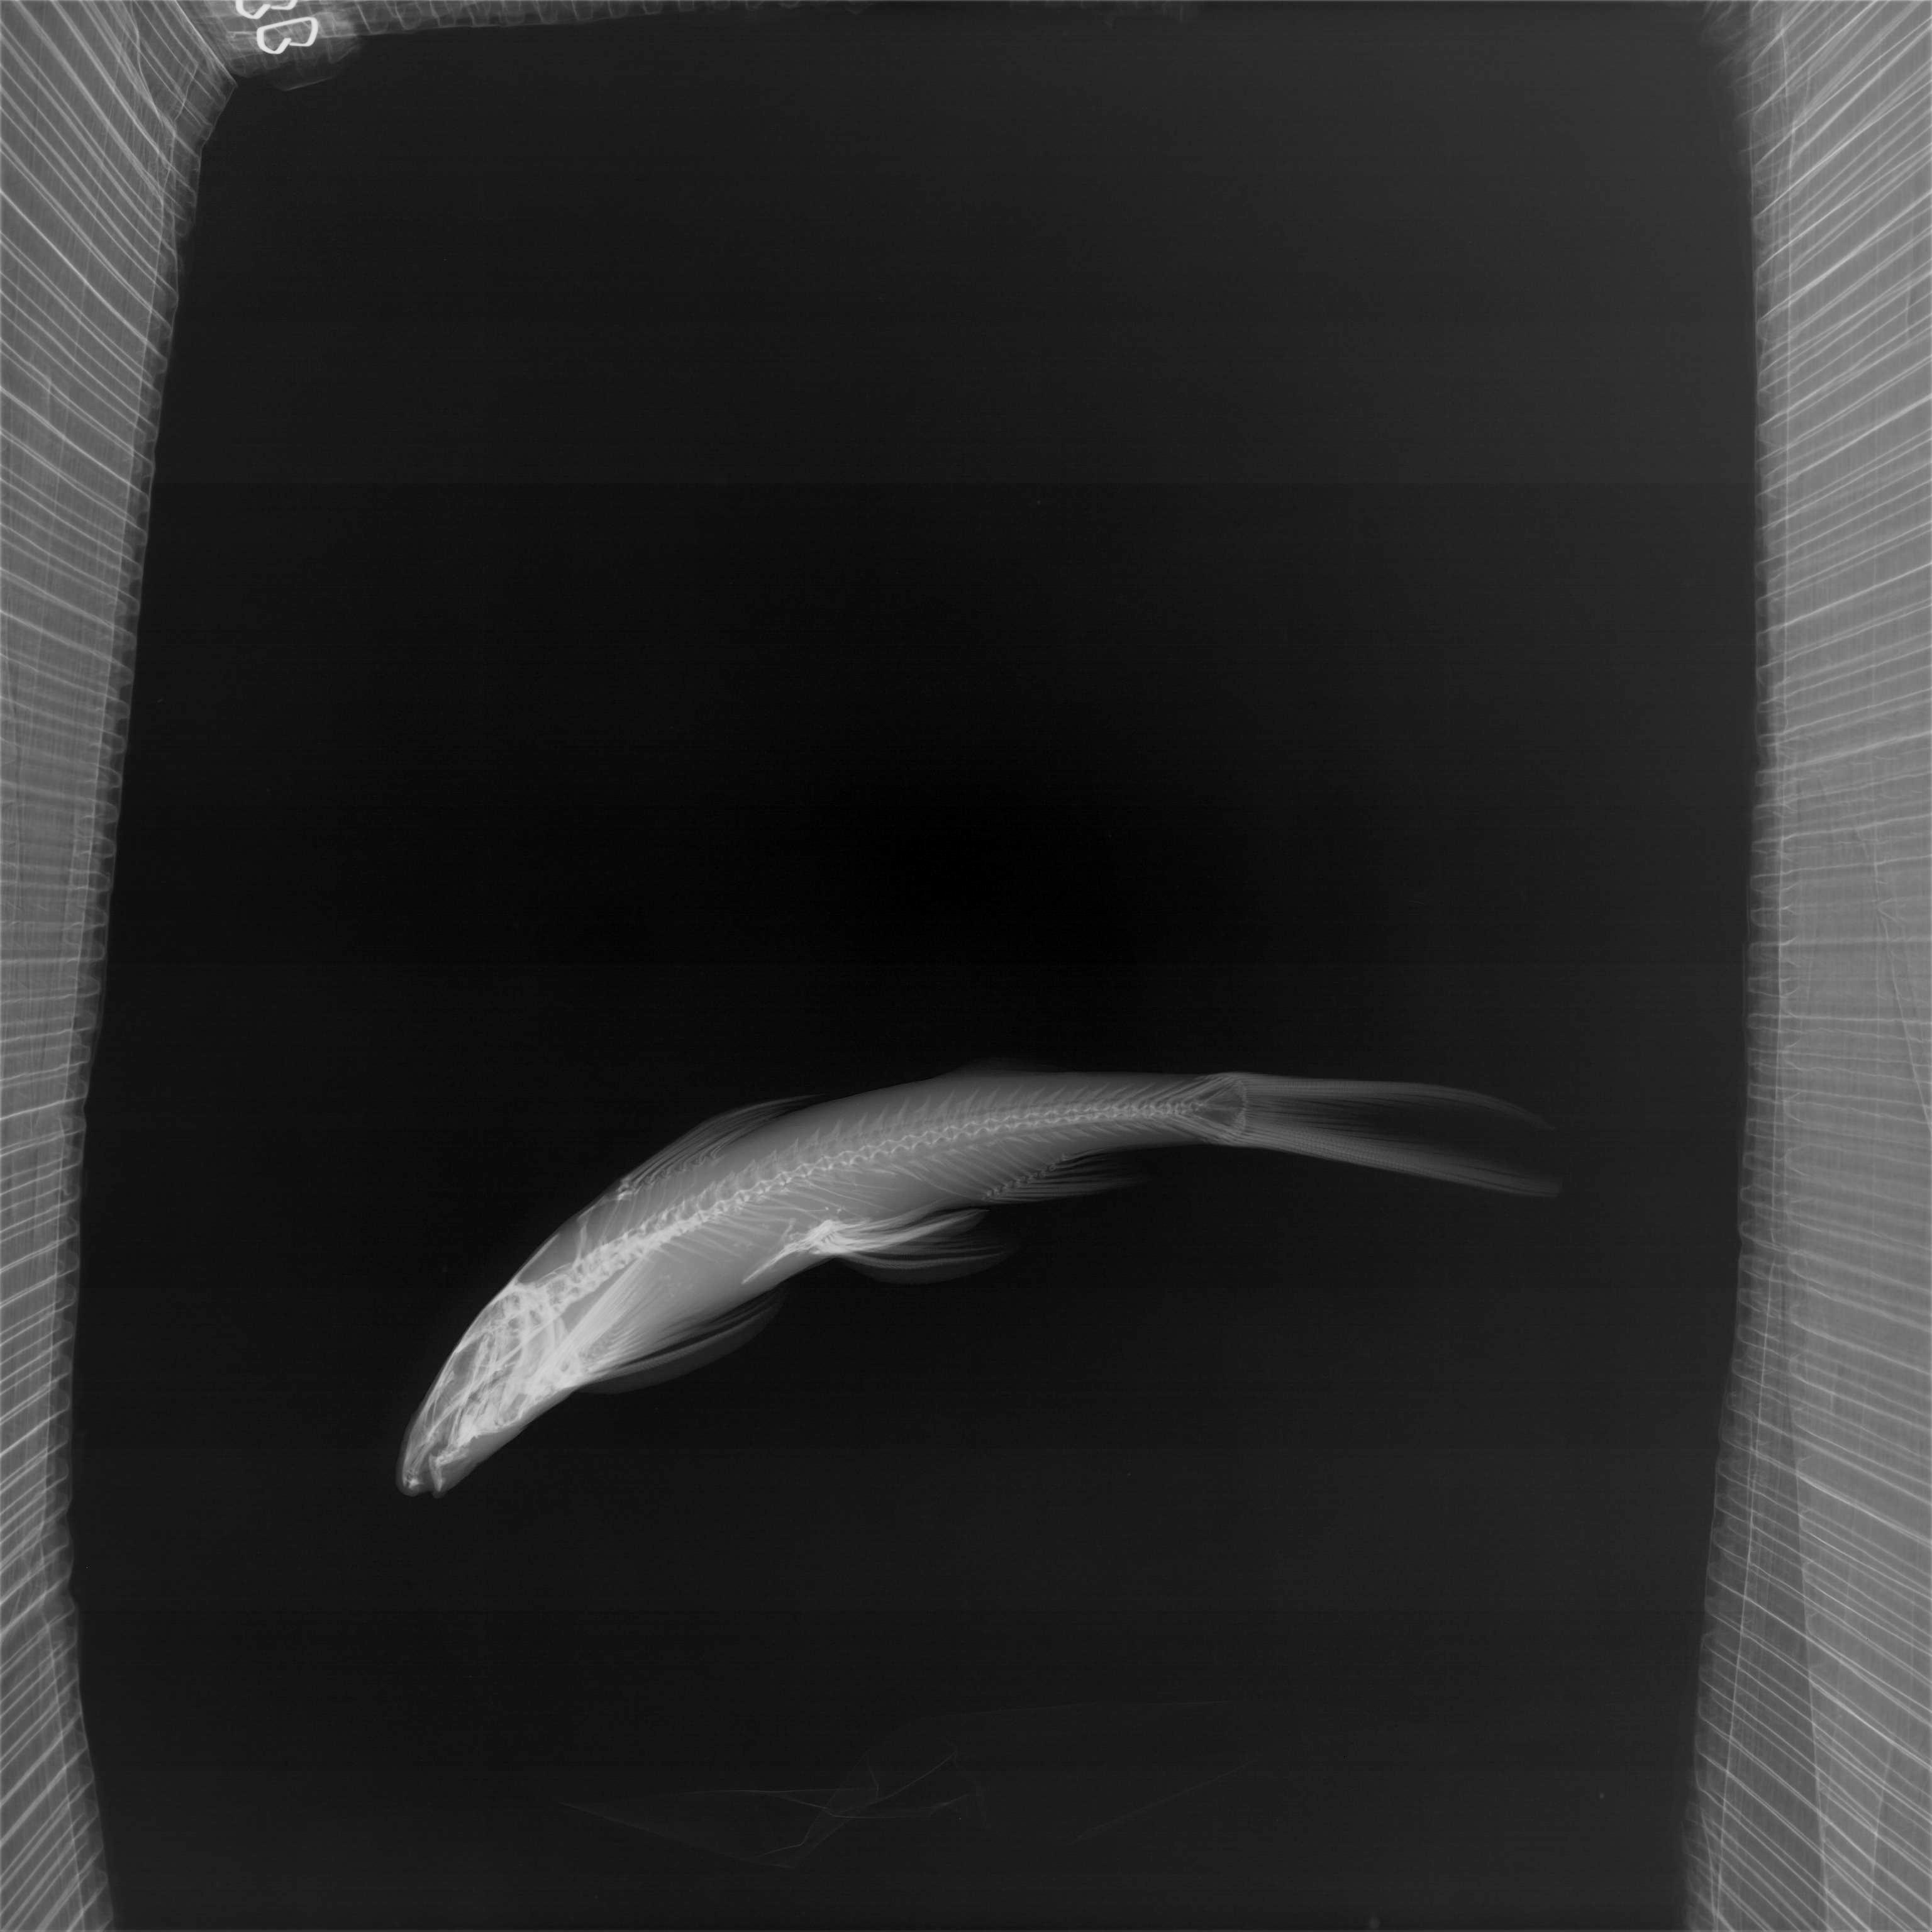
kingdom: Animalia
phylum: Chordata
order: Siluriformes
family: Amphiliidae
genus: Congoglanis
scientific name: Congoglanis alula
